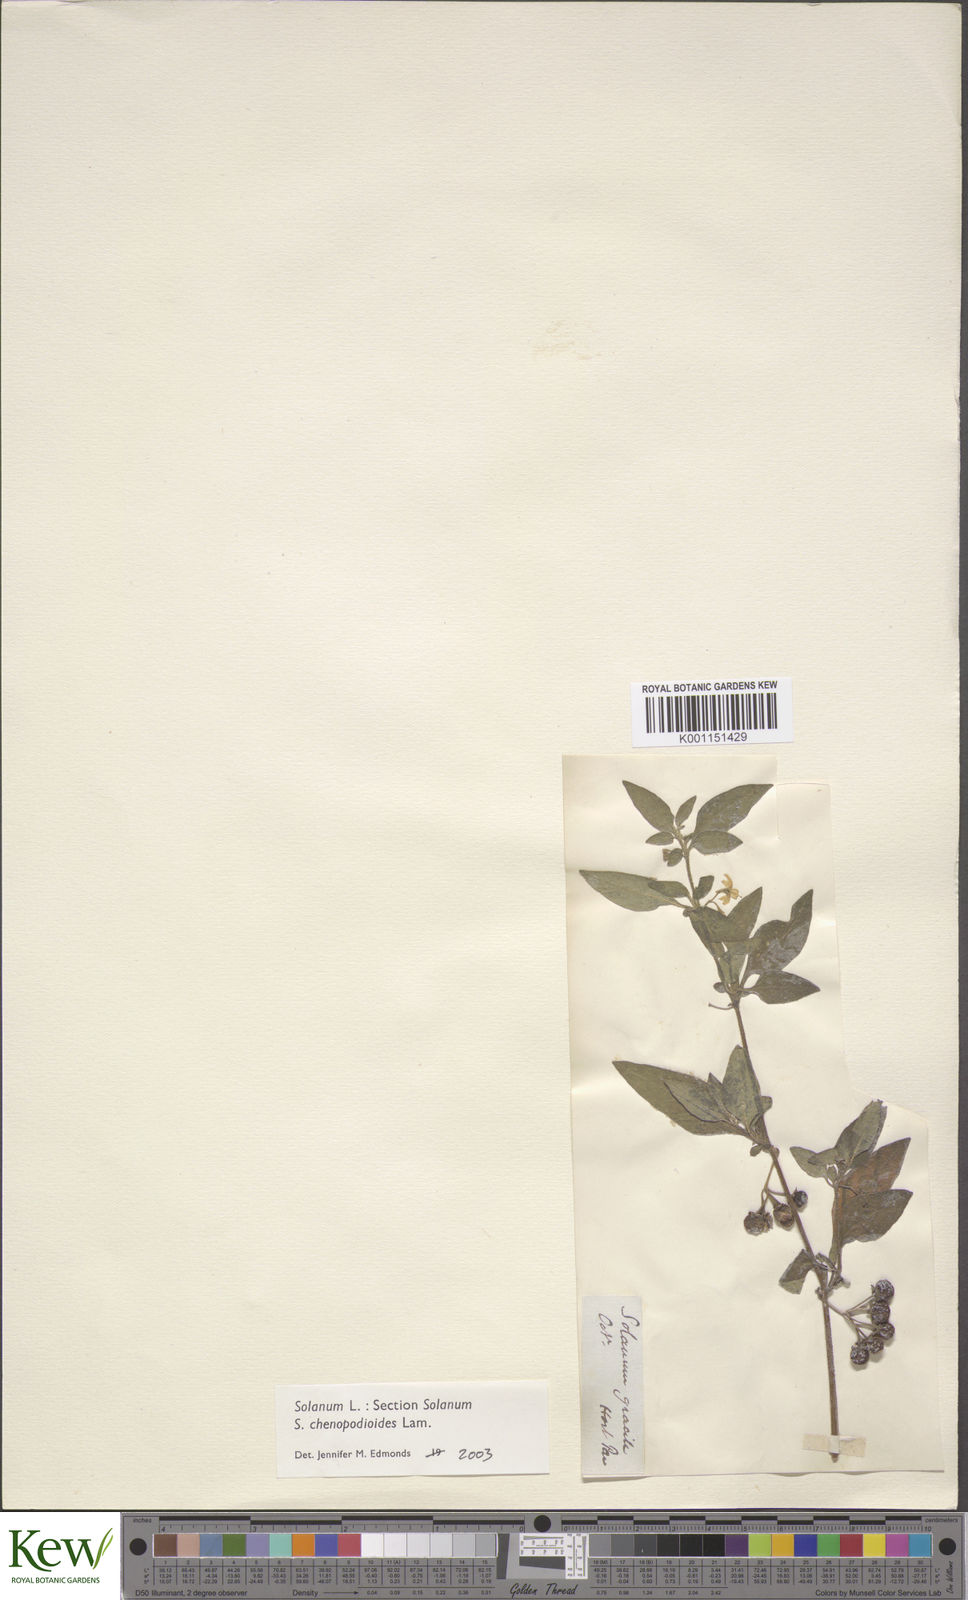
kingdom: Plantae
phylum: Tracheophyta
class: Magnoliopsida
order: Solanales
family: Solanaceae
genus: Solanum
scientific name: Solanum chenopodioides
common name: Tall nightshade
